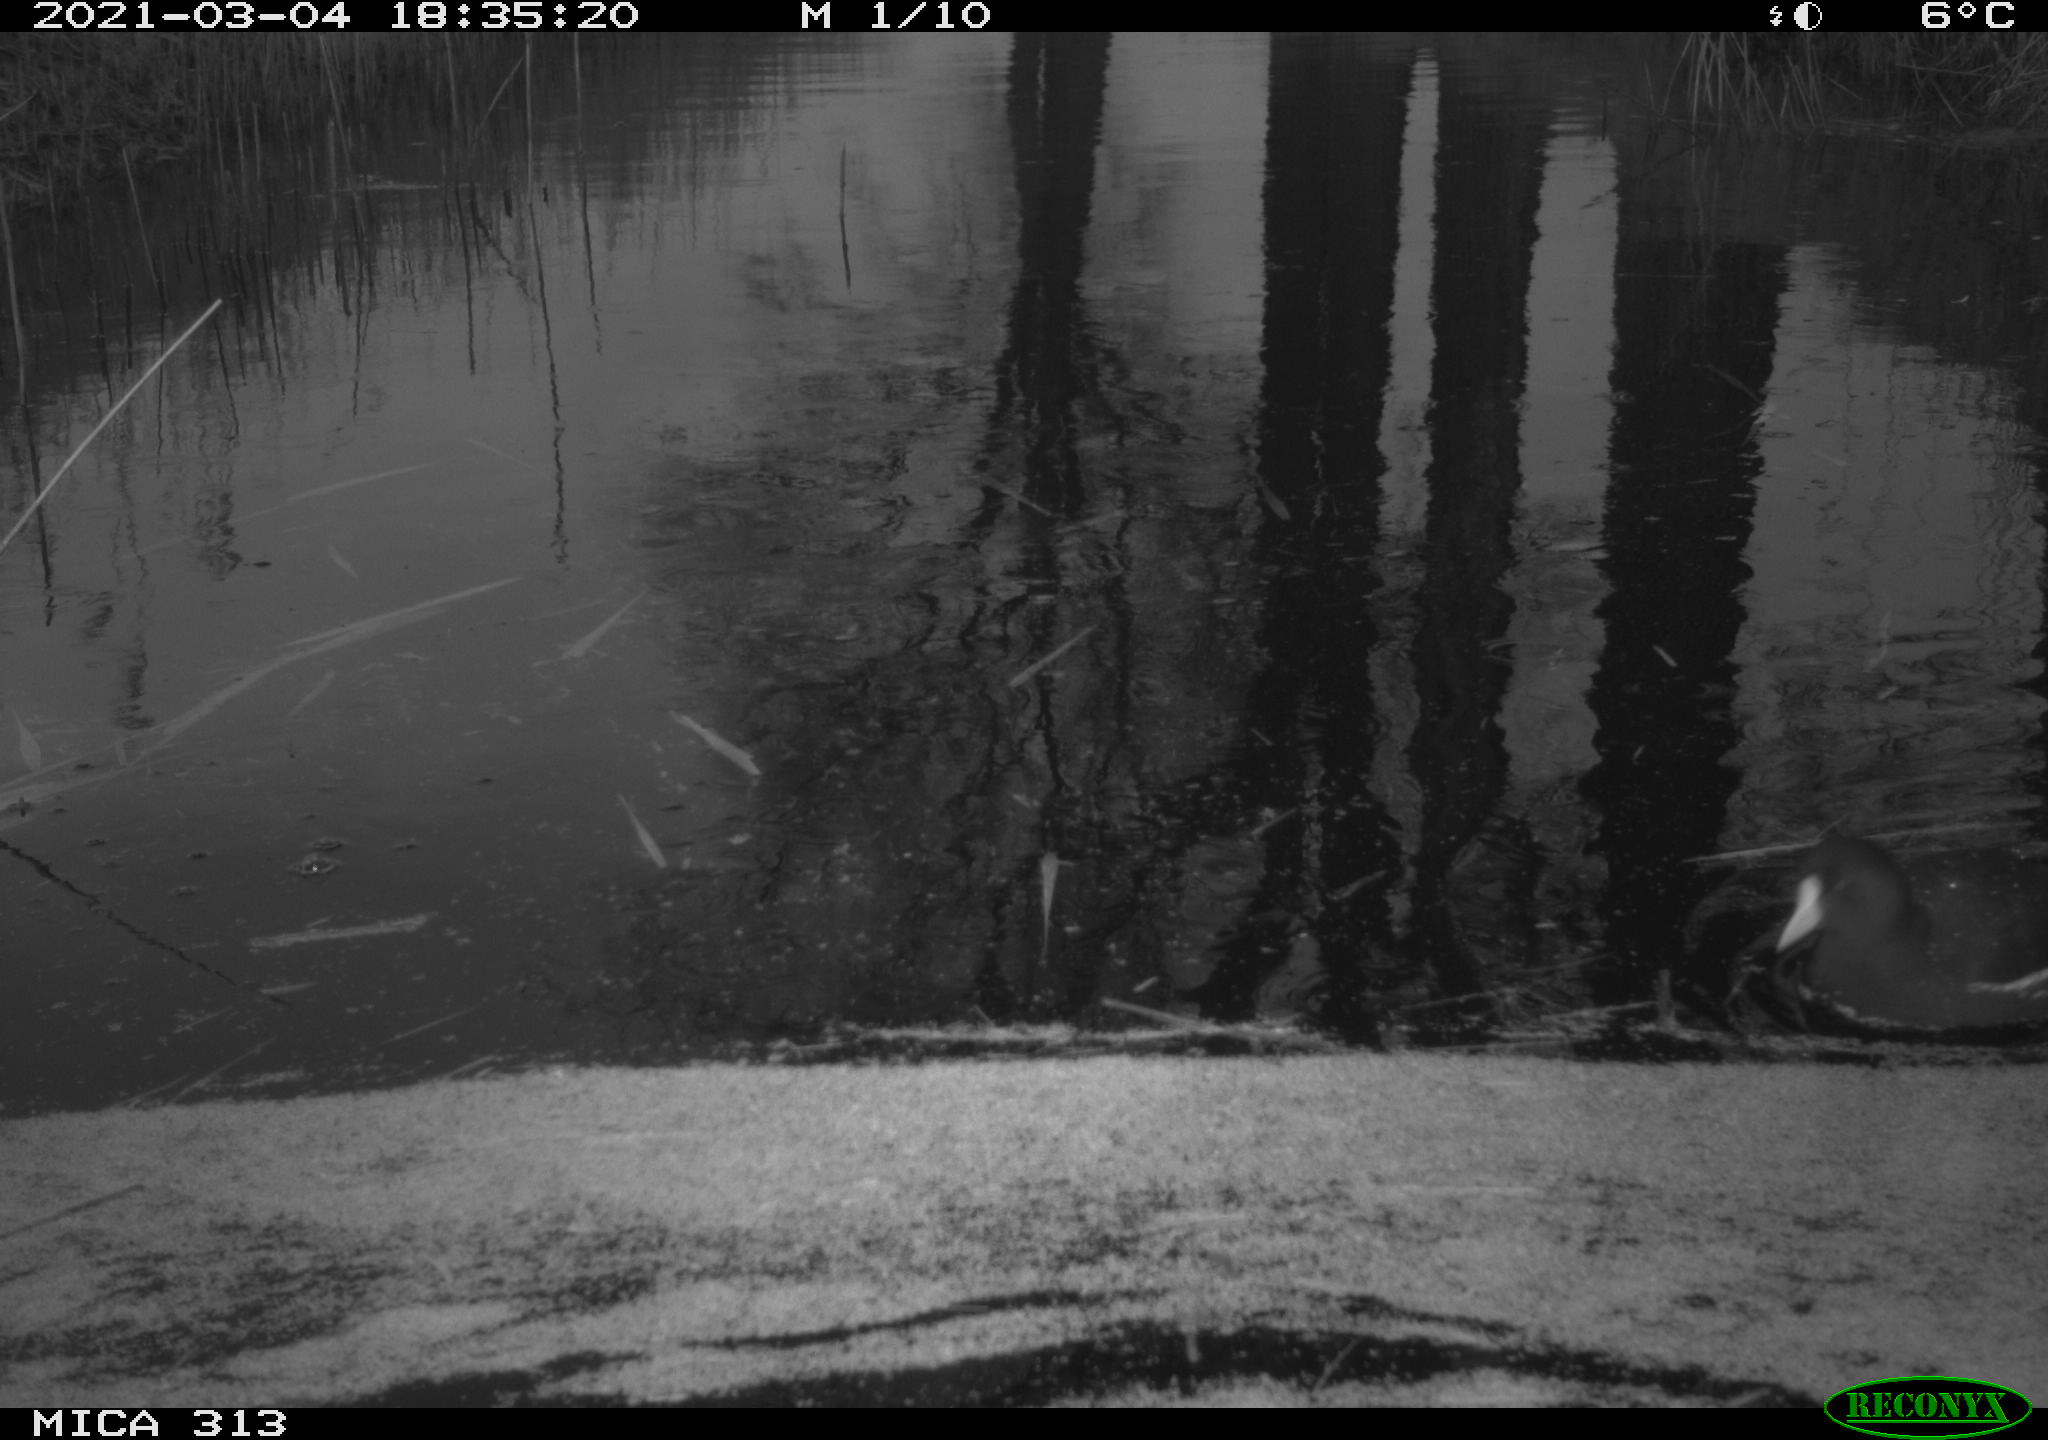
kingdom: Animalia
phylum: Chordata
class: Aves
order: Gruiformes
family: Rallidae
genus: Gallinula
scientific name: Gallinula chloropus
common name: Common moorhen
